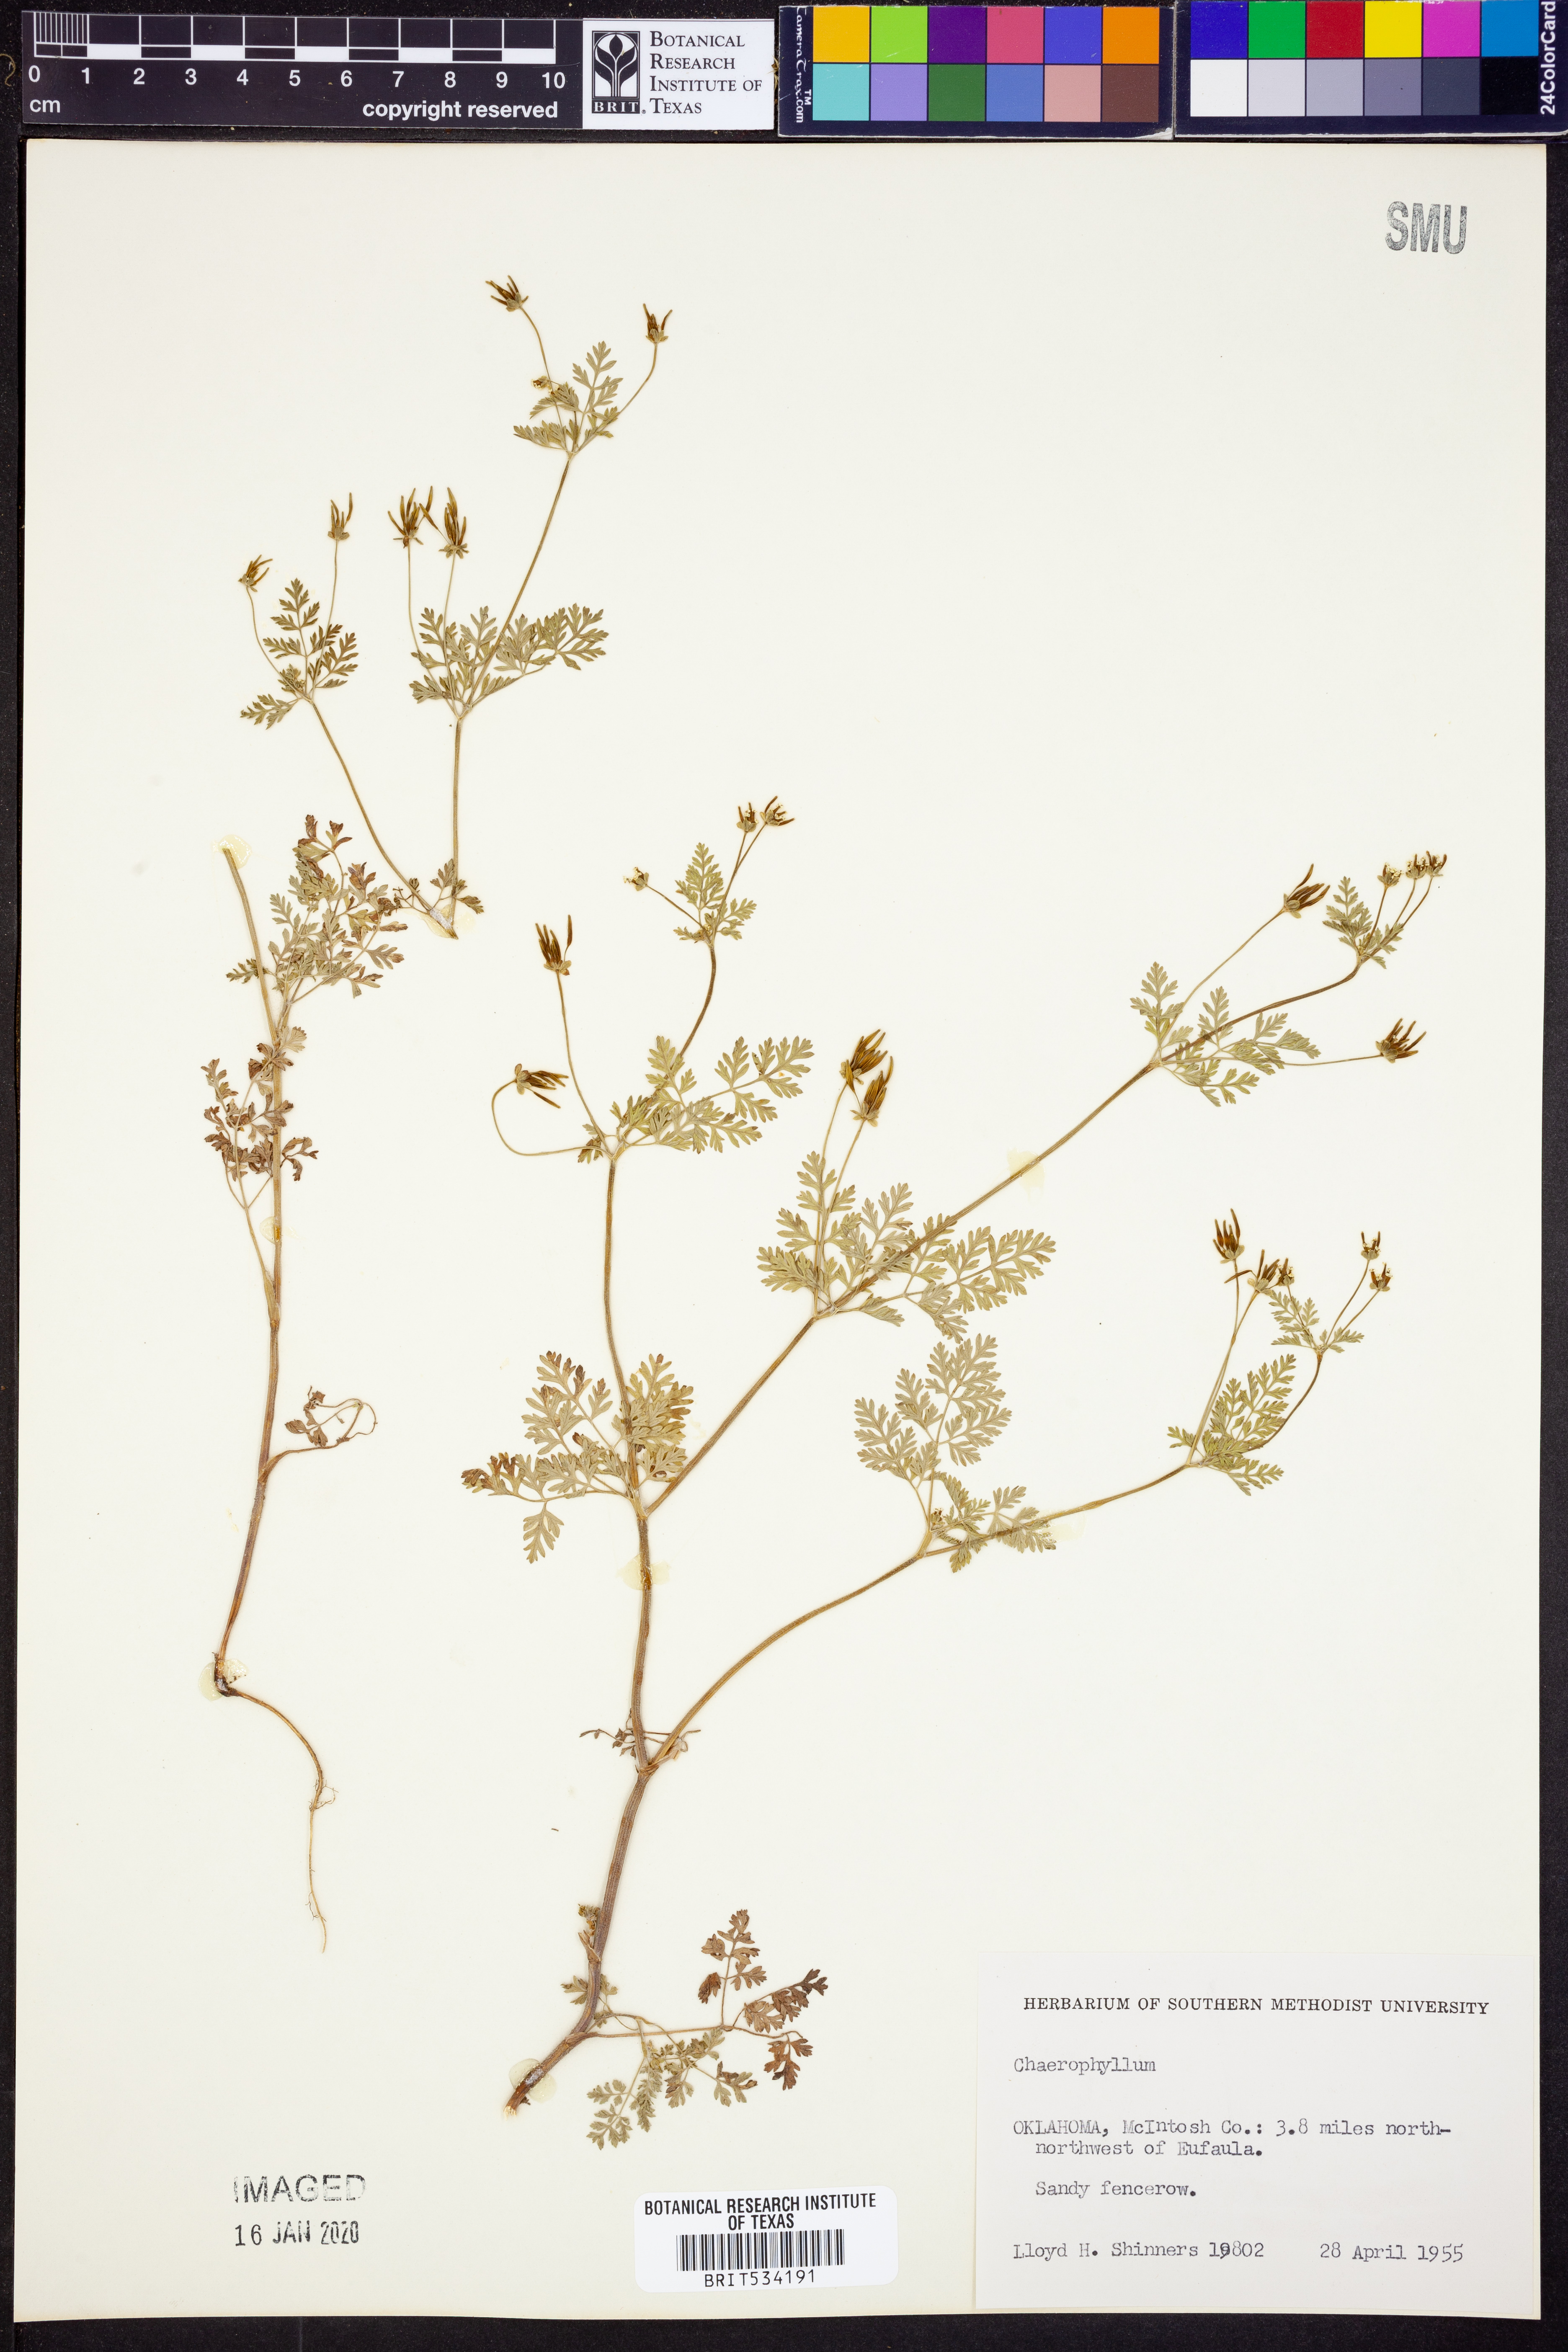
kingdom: Plantae
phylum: Tracheophyta
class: Magnoliopsida
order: Apiales
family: Apiaceae
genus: Chaerophyllum
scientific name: Chaerophyllum
